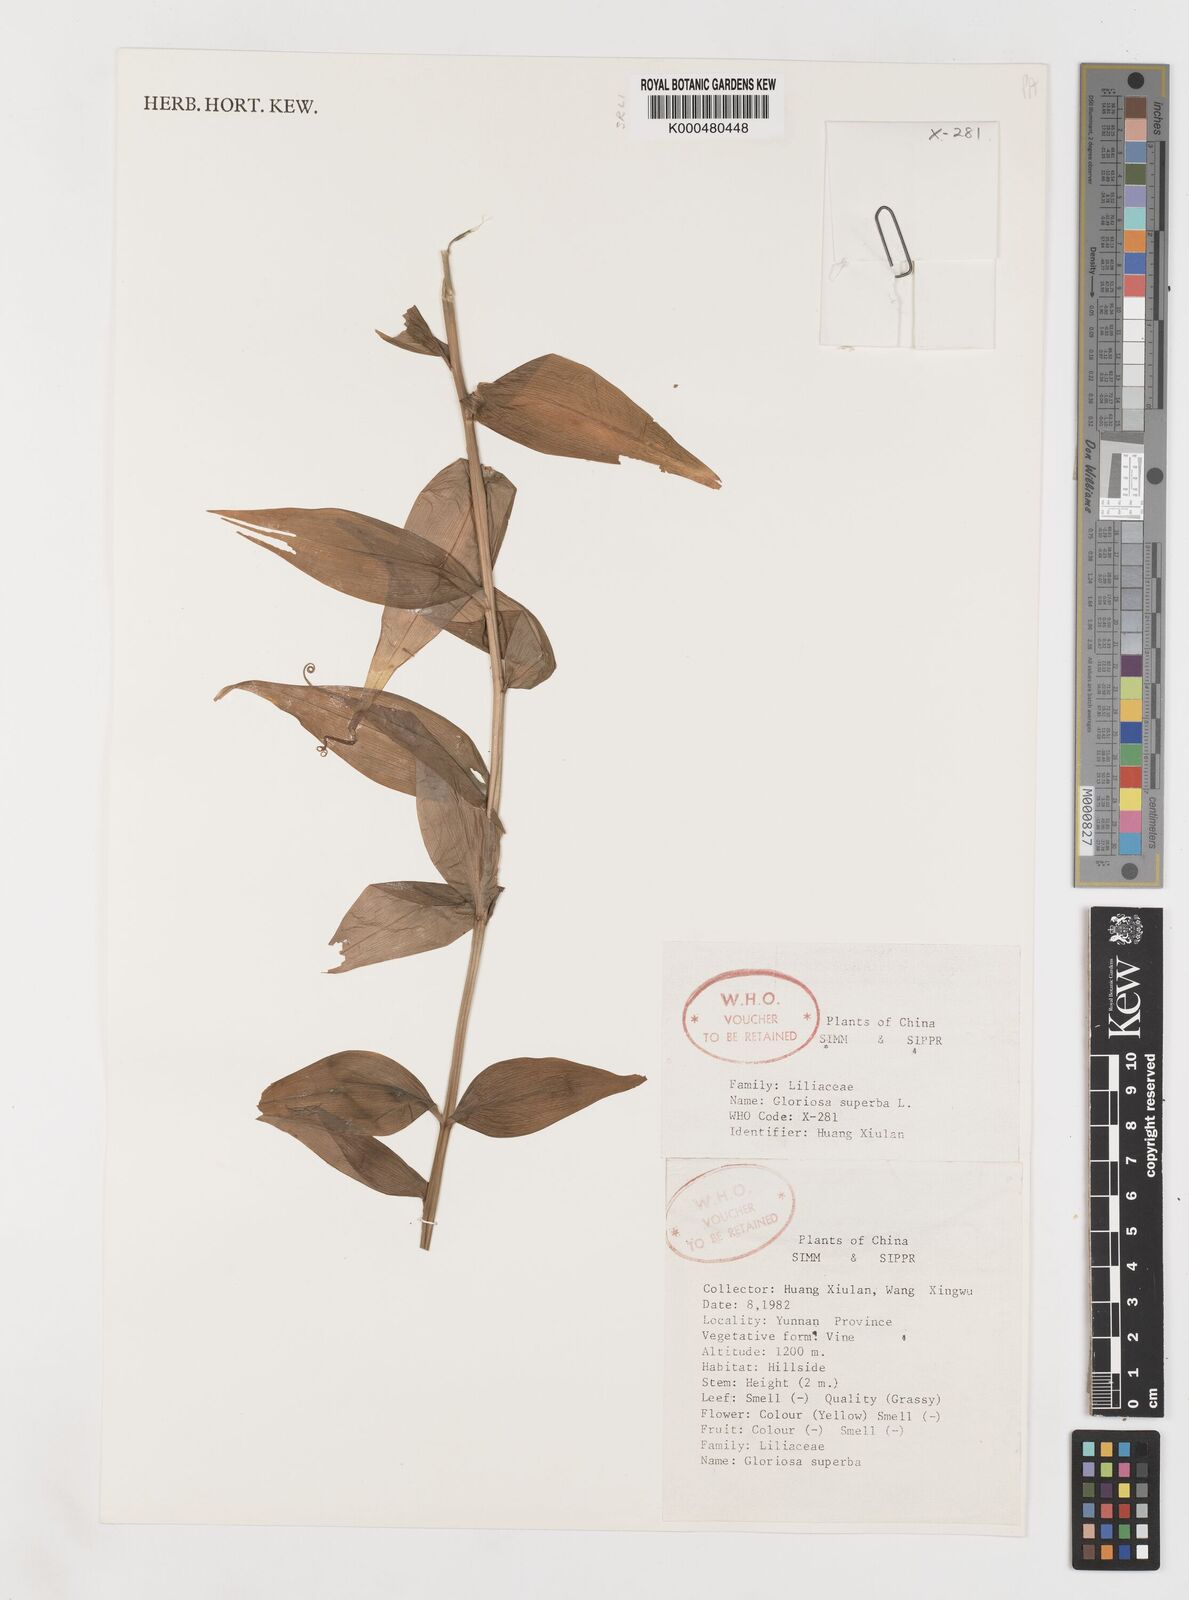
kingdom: Plantae
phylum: Tracheophyta
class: Liliopsida
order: Liliales
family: Colchicaceae
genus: Gloriosa
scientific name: Gloriosa superba
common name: Flame lily
